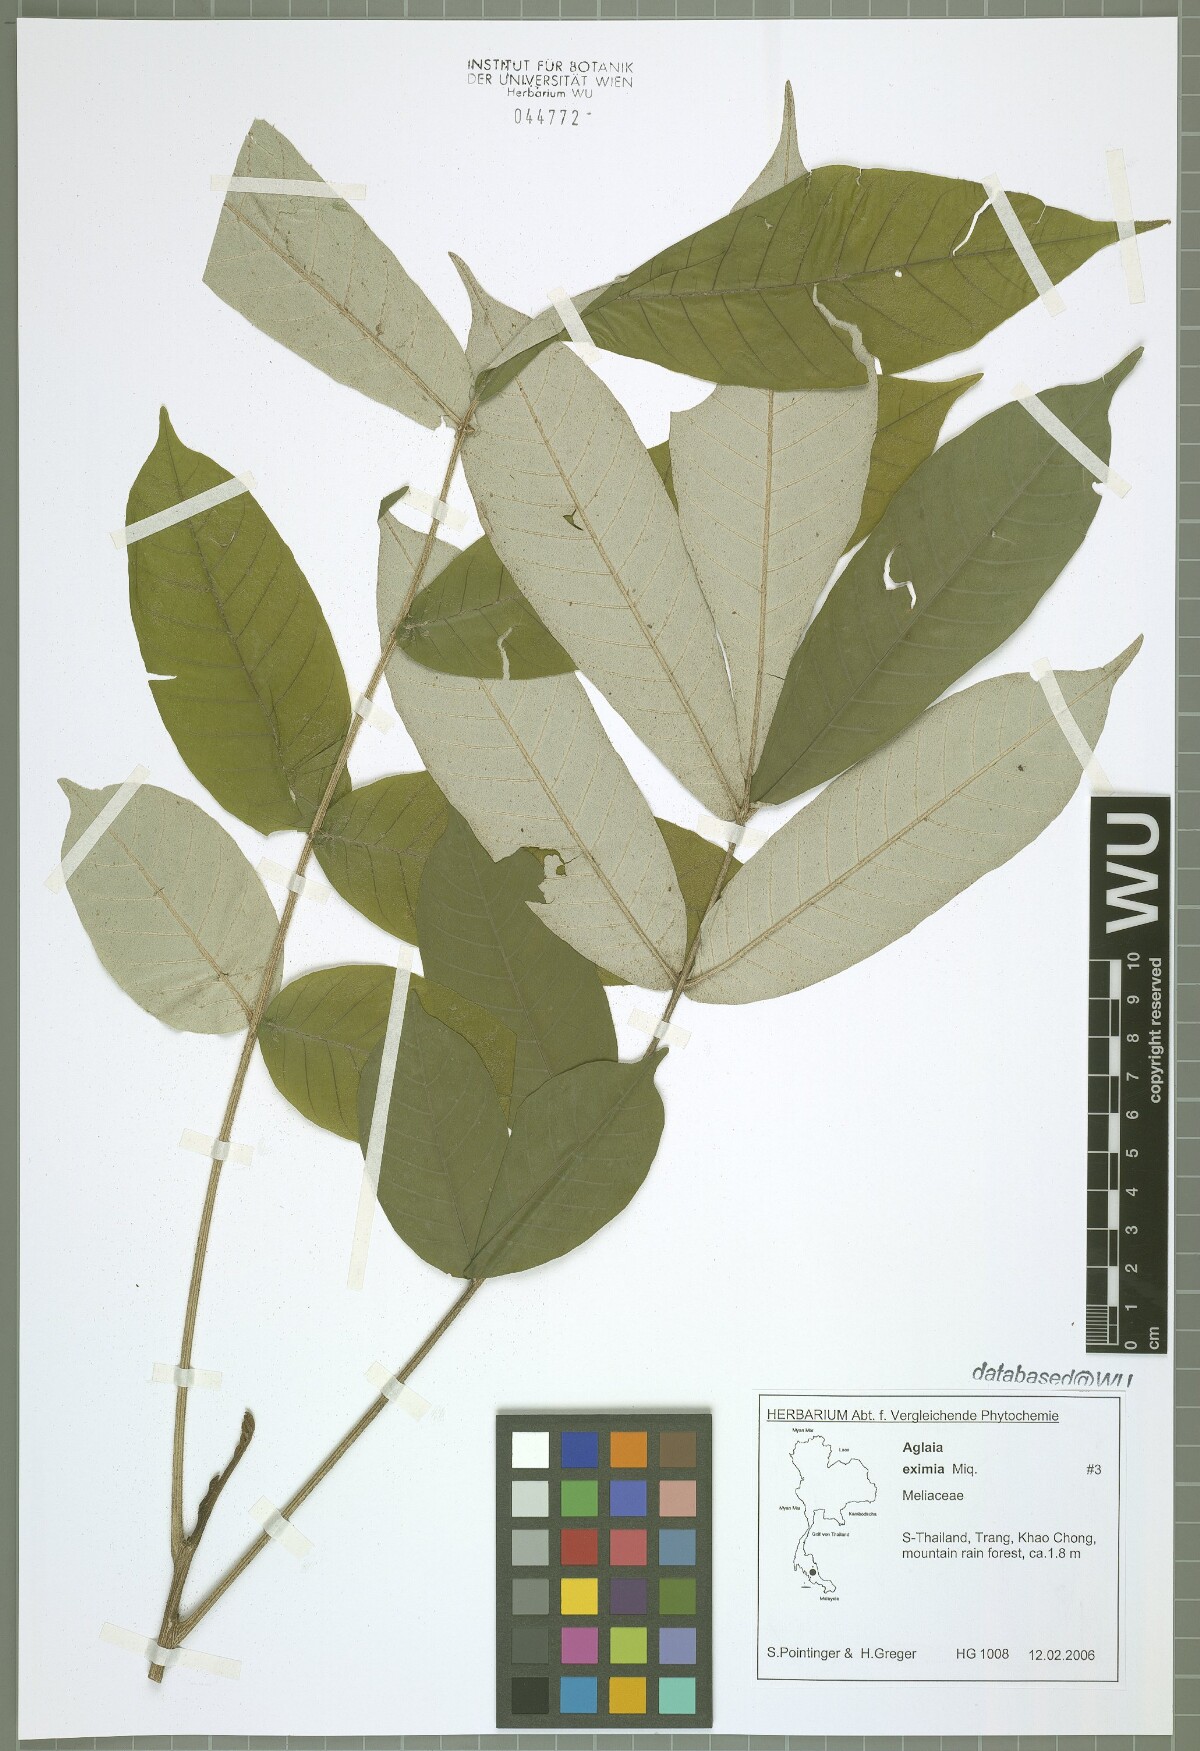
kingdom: Plantae
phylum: Tracheophyta
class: Magnoliopsida
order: Sapindales
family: Meliaceae
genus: Aglaia
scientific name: Aglaia eximia
